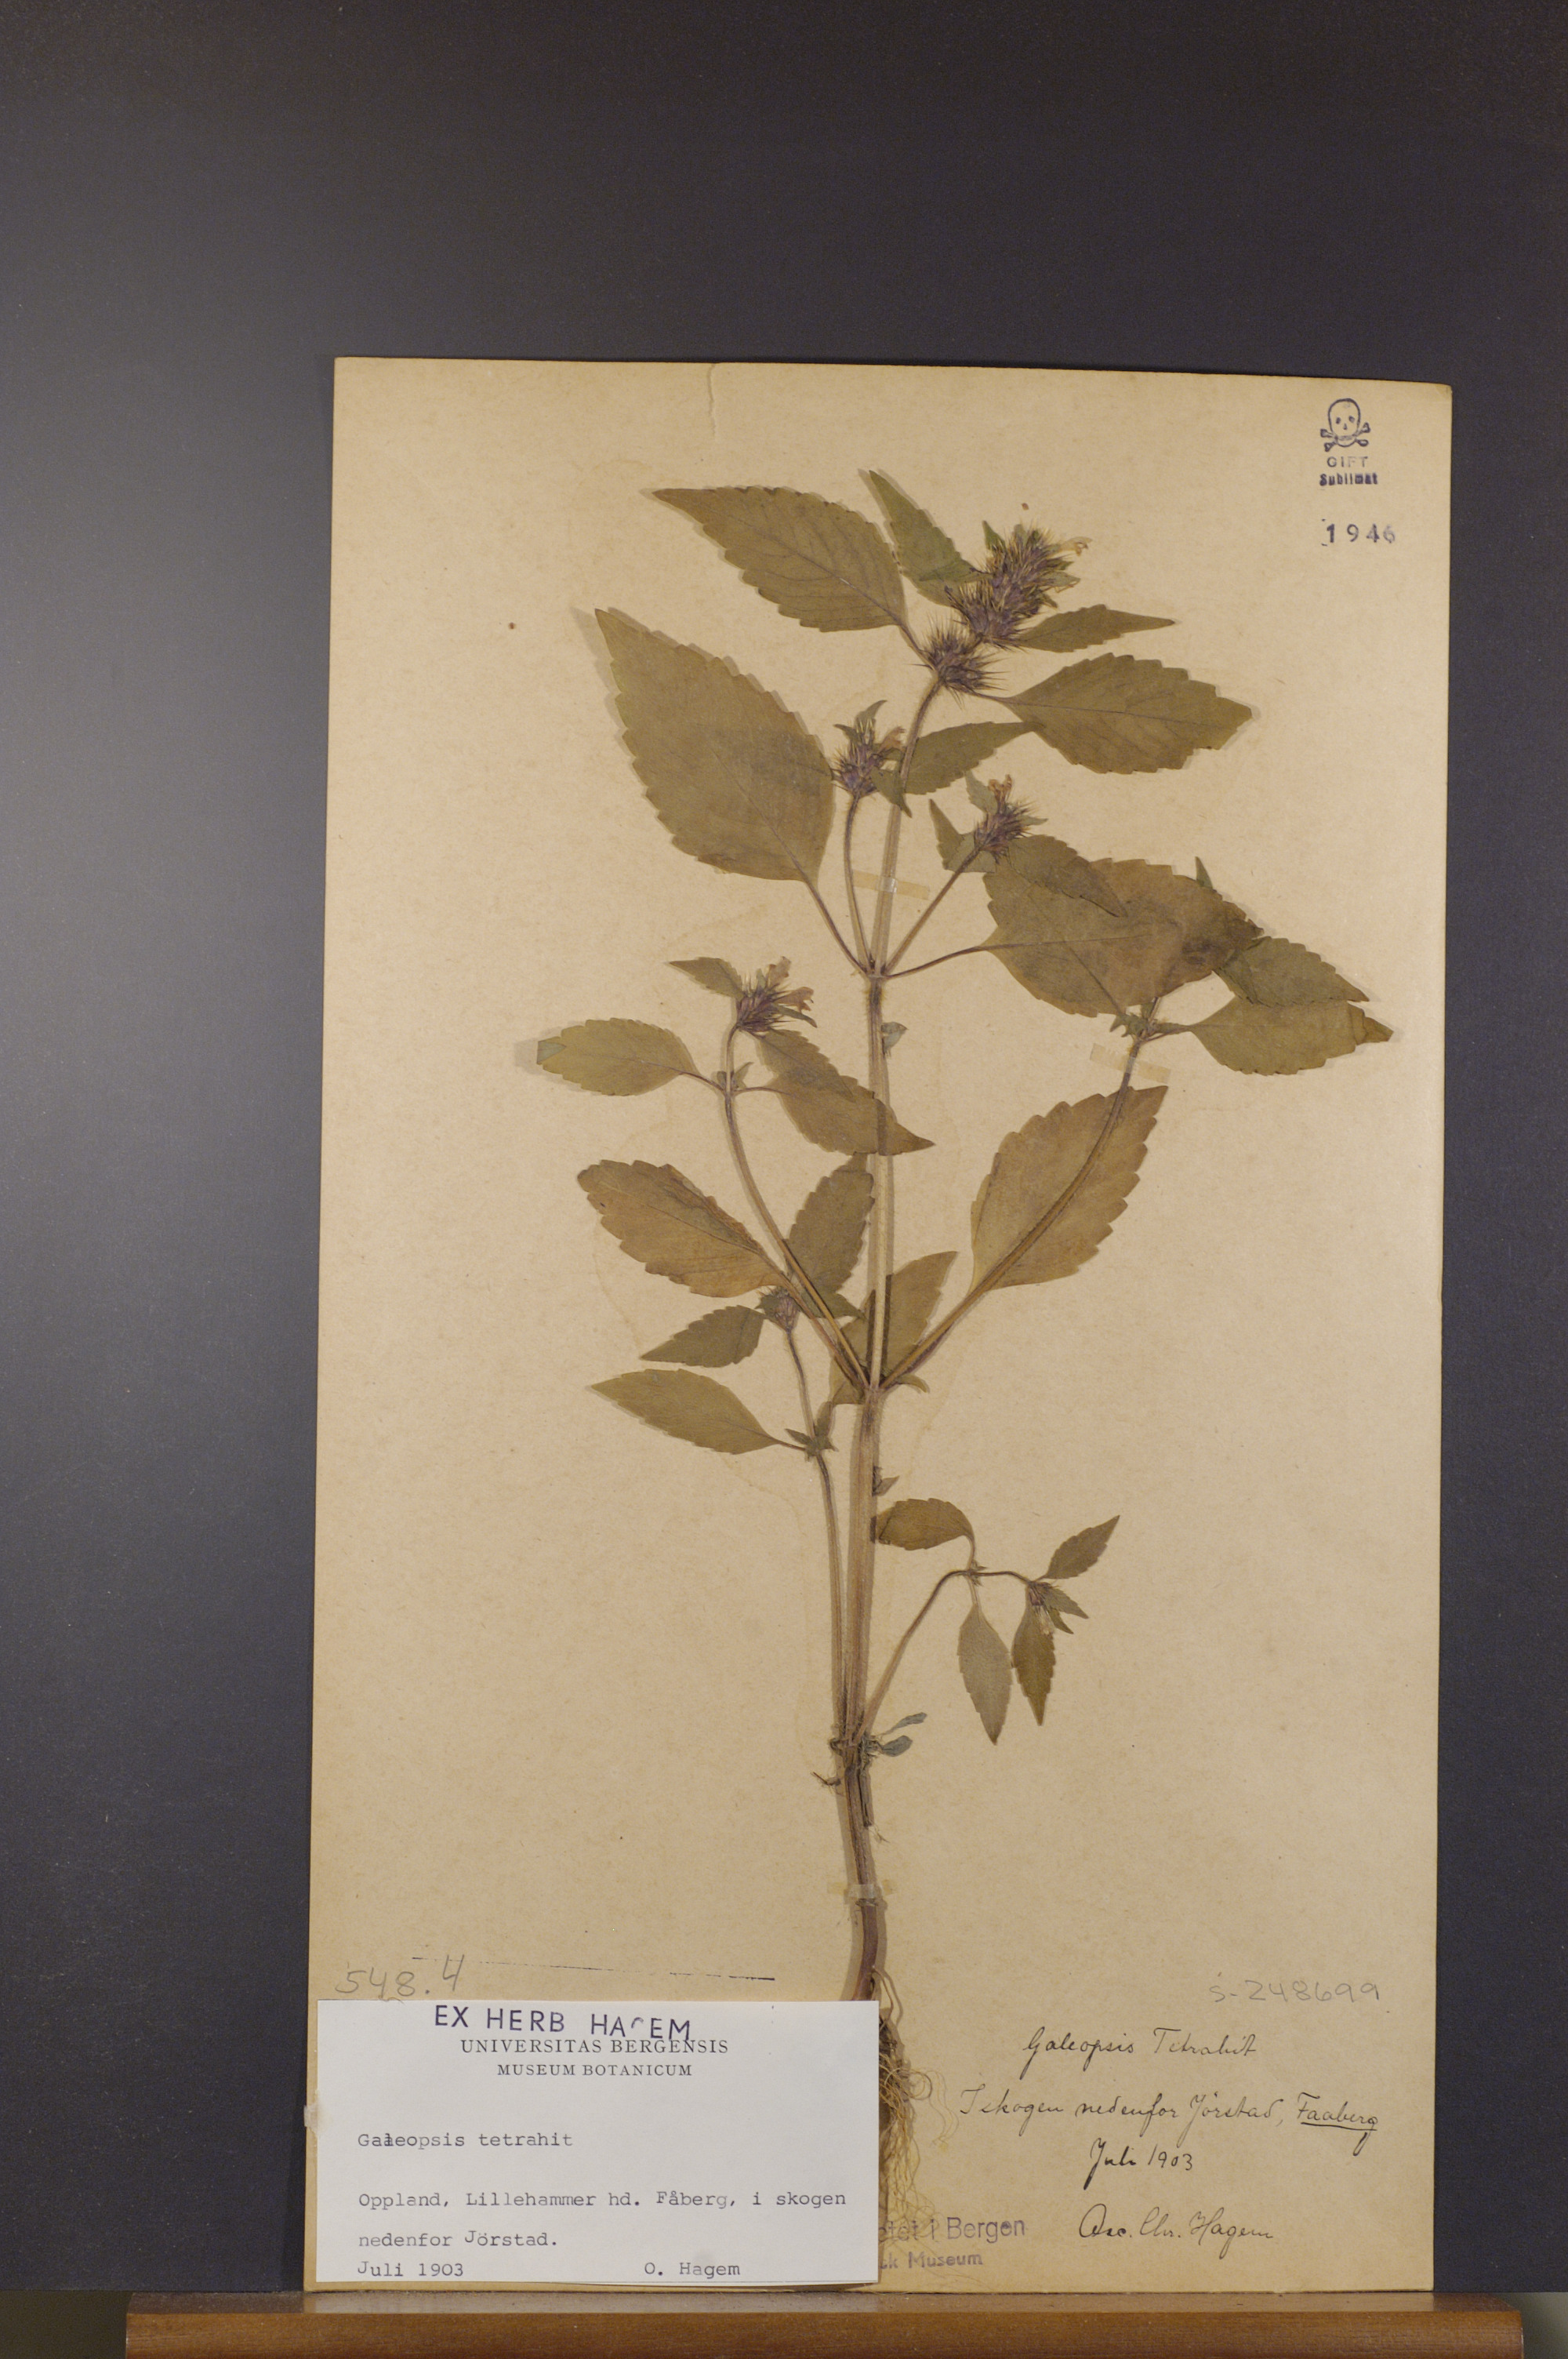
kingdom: Plantae
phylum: Tracheophyta
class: Magnoliopsida
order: Lamiales
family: Lamiaceae
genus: Galeopsis
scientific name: Galeopsis tetrahit
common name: Common hemp-nettle
